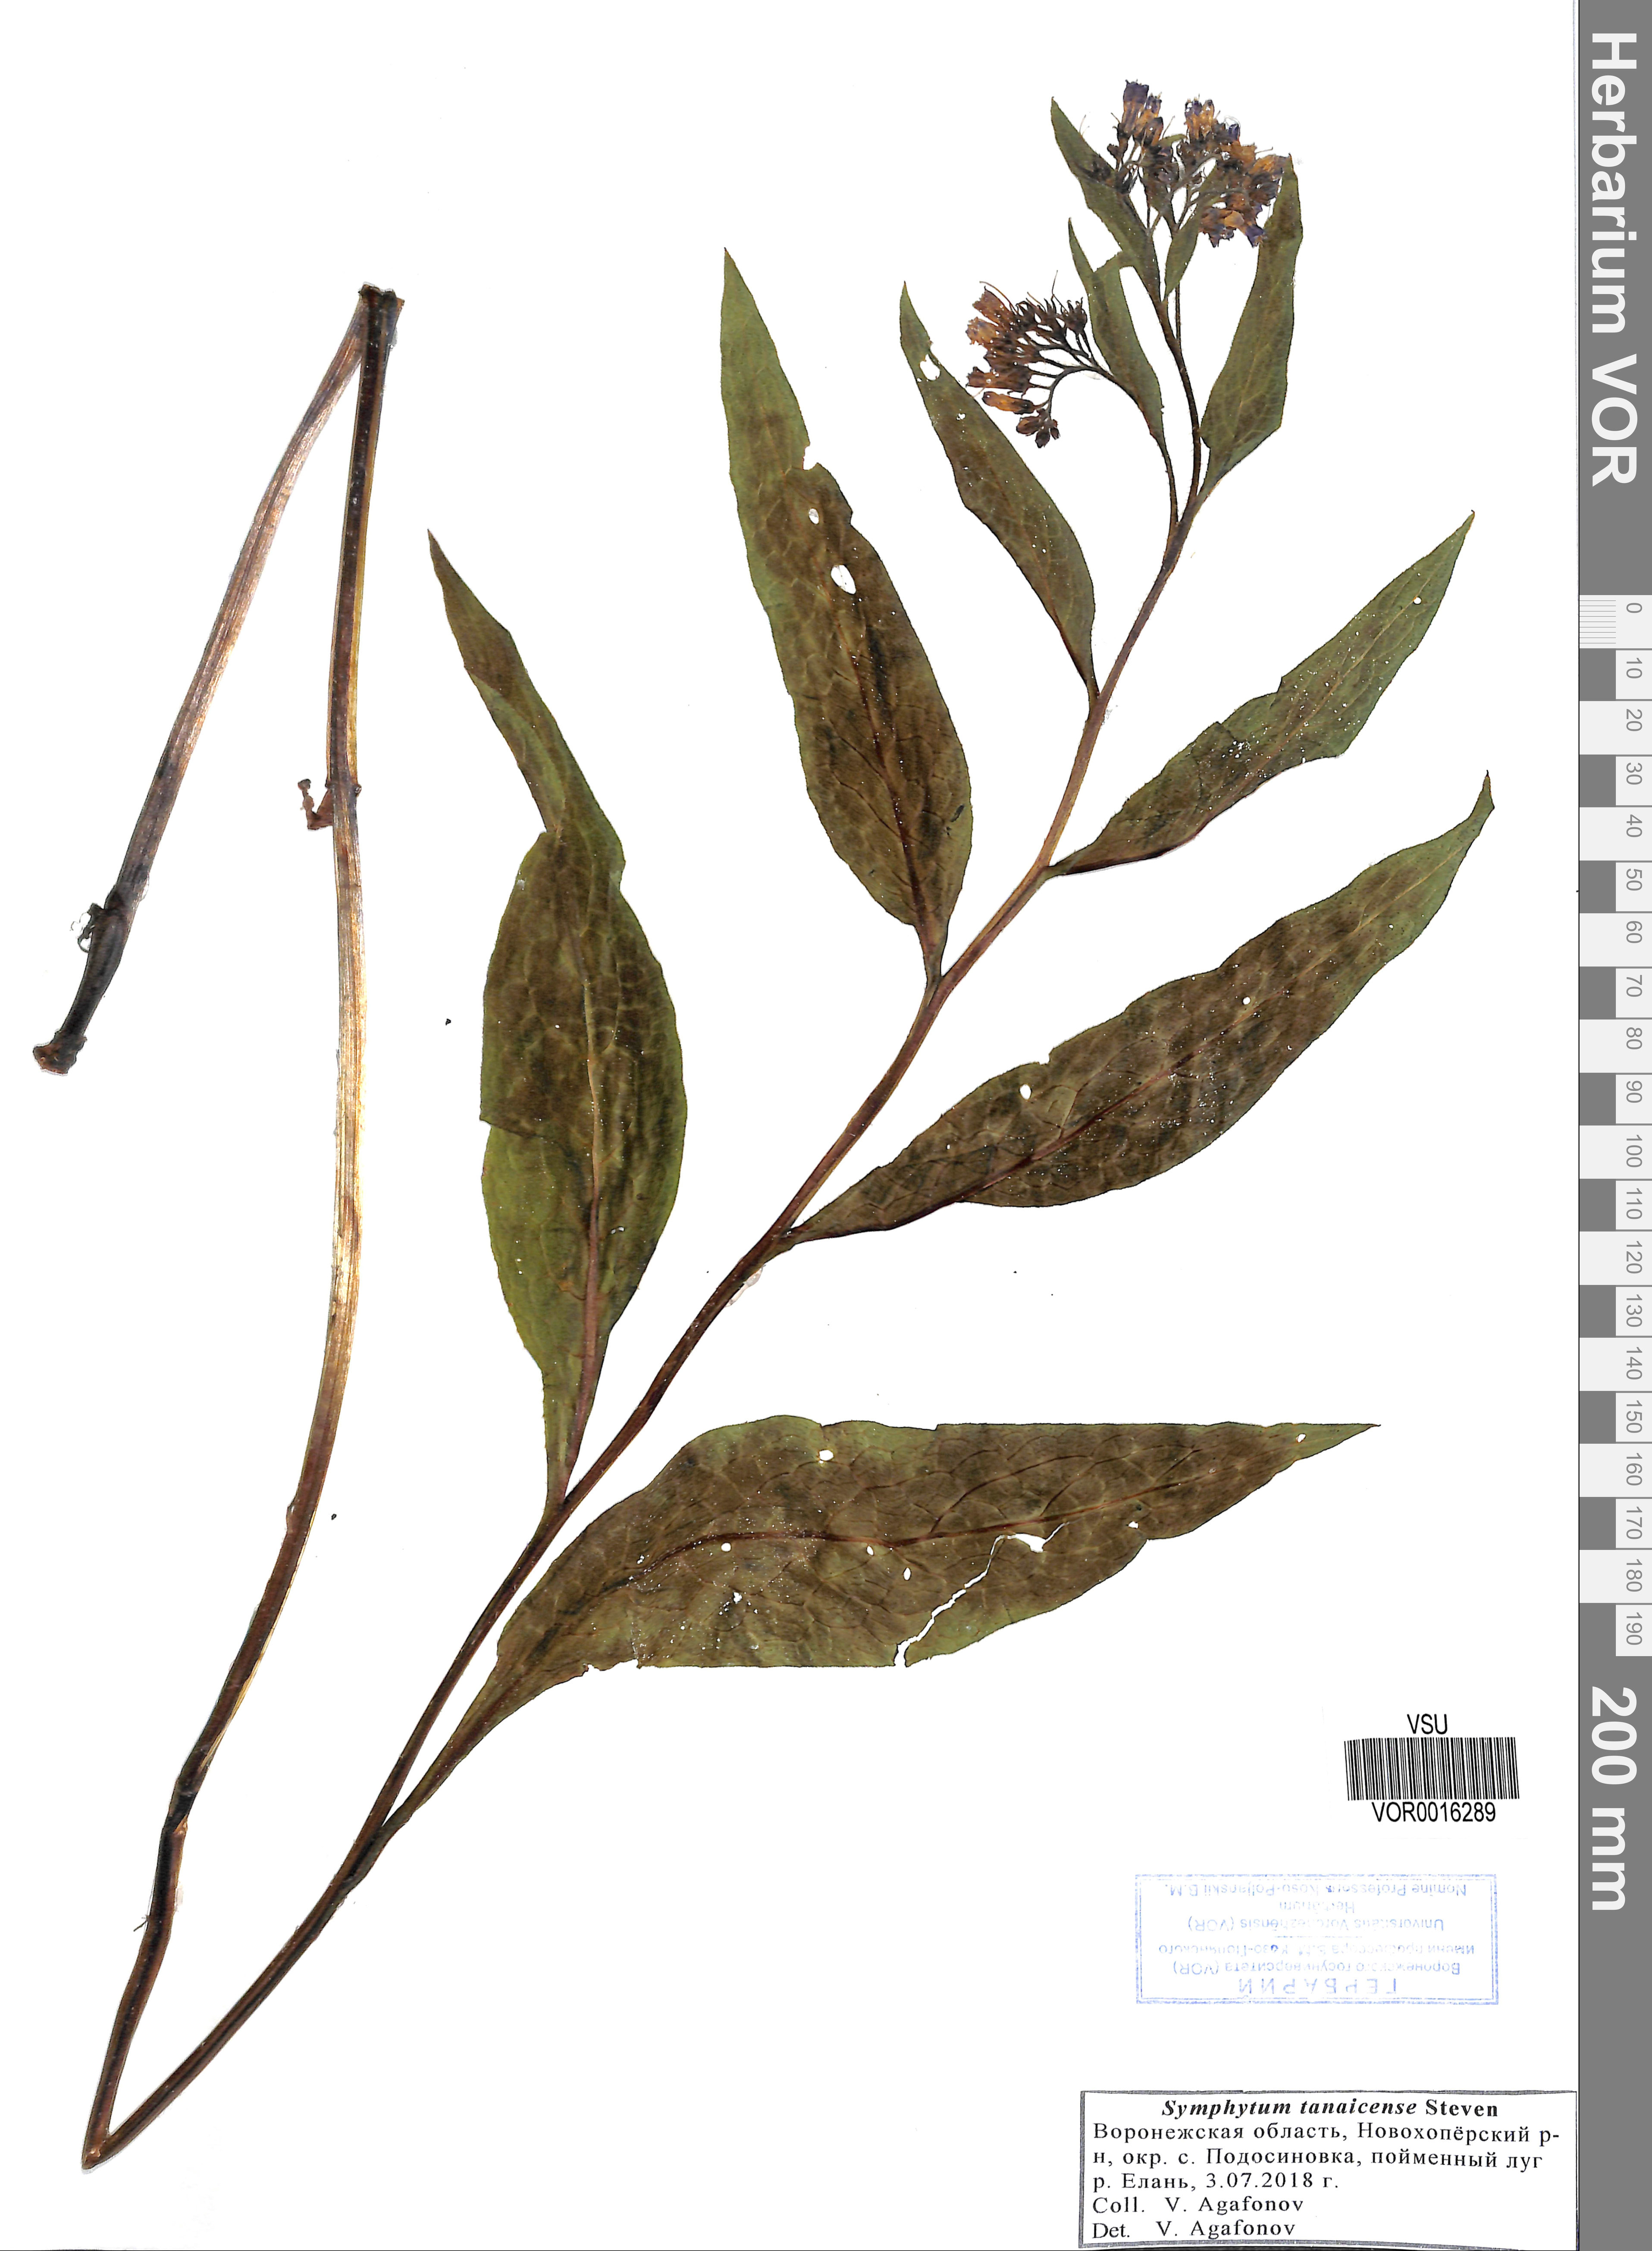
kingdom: Plantae
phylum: Tracheophyta
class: Magnoliopsida
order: Boraginales
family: Boraginaceae
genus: Symphytum
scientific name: Symphytum tauricum
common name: Crimean comfrey
